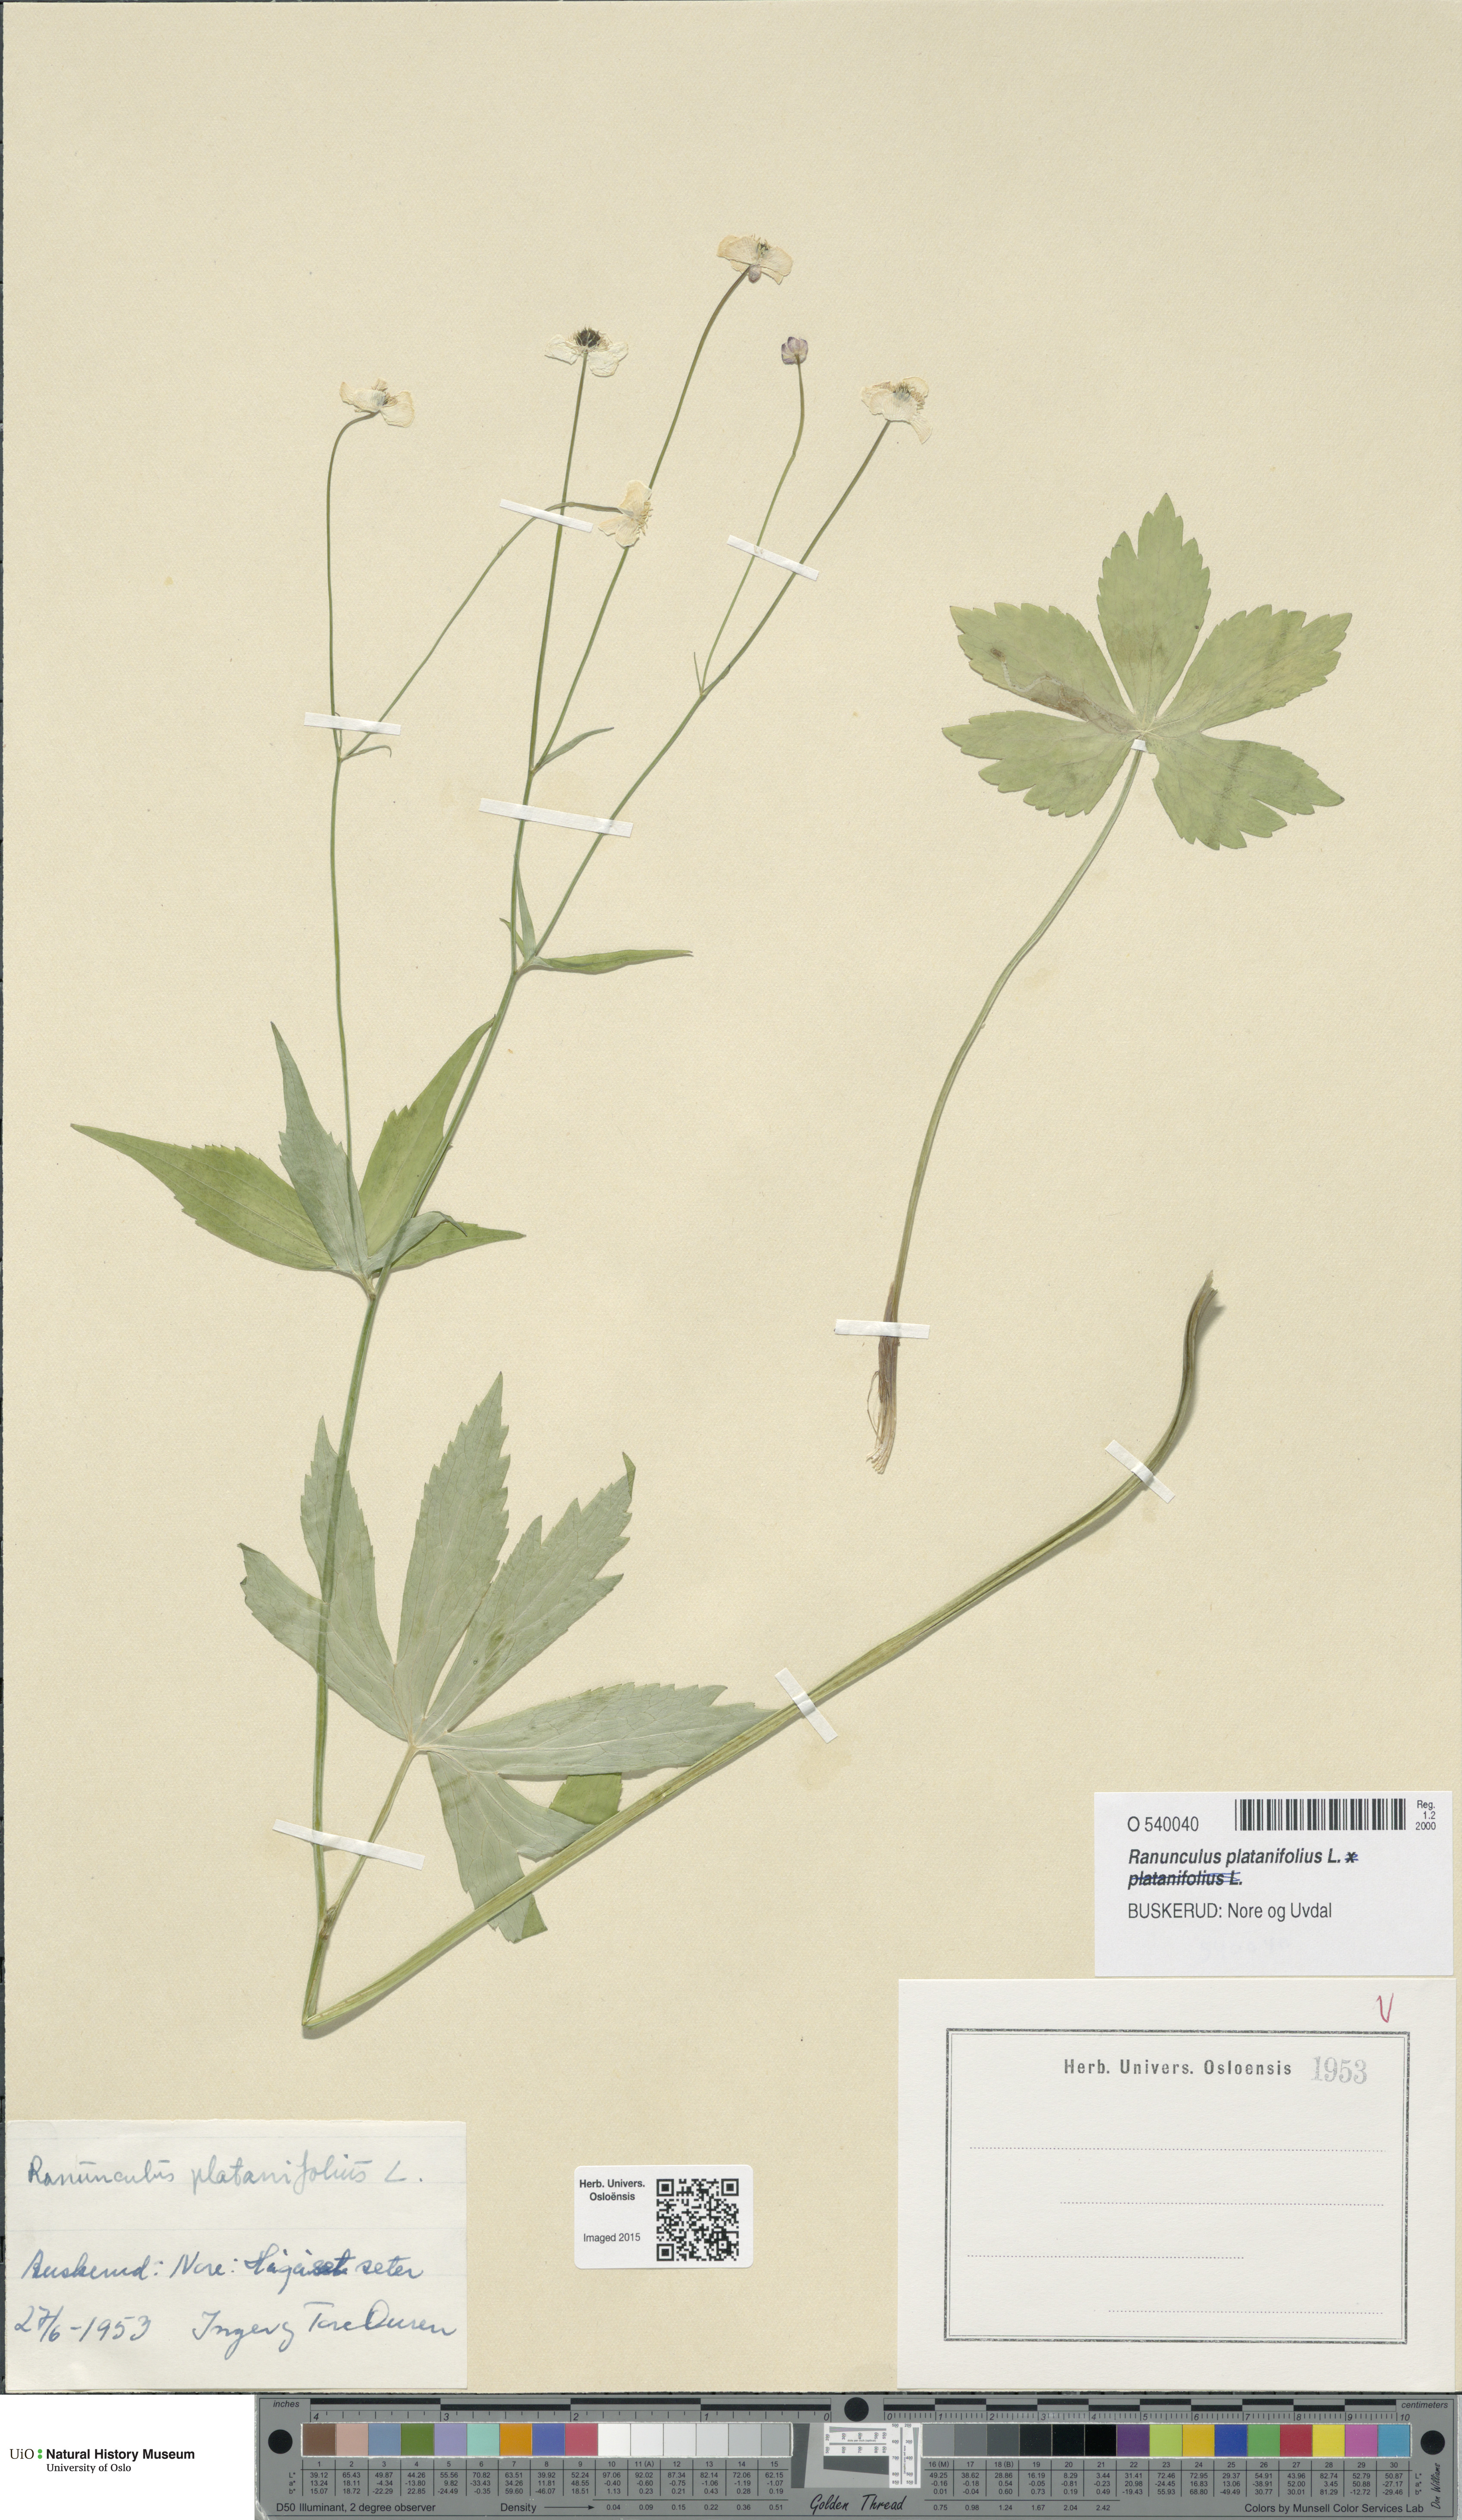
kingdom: Plantae
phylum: Tracheophyta
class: Magnoliopsida
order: Ranunculales
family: Ranunculaceae
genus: Ranunculus
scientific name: Ranunculus platanifolius
